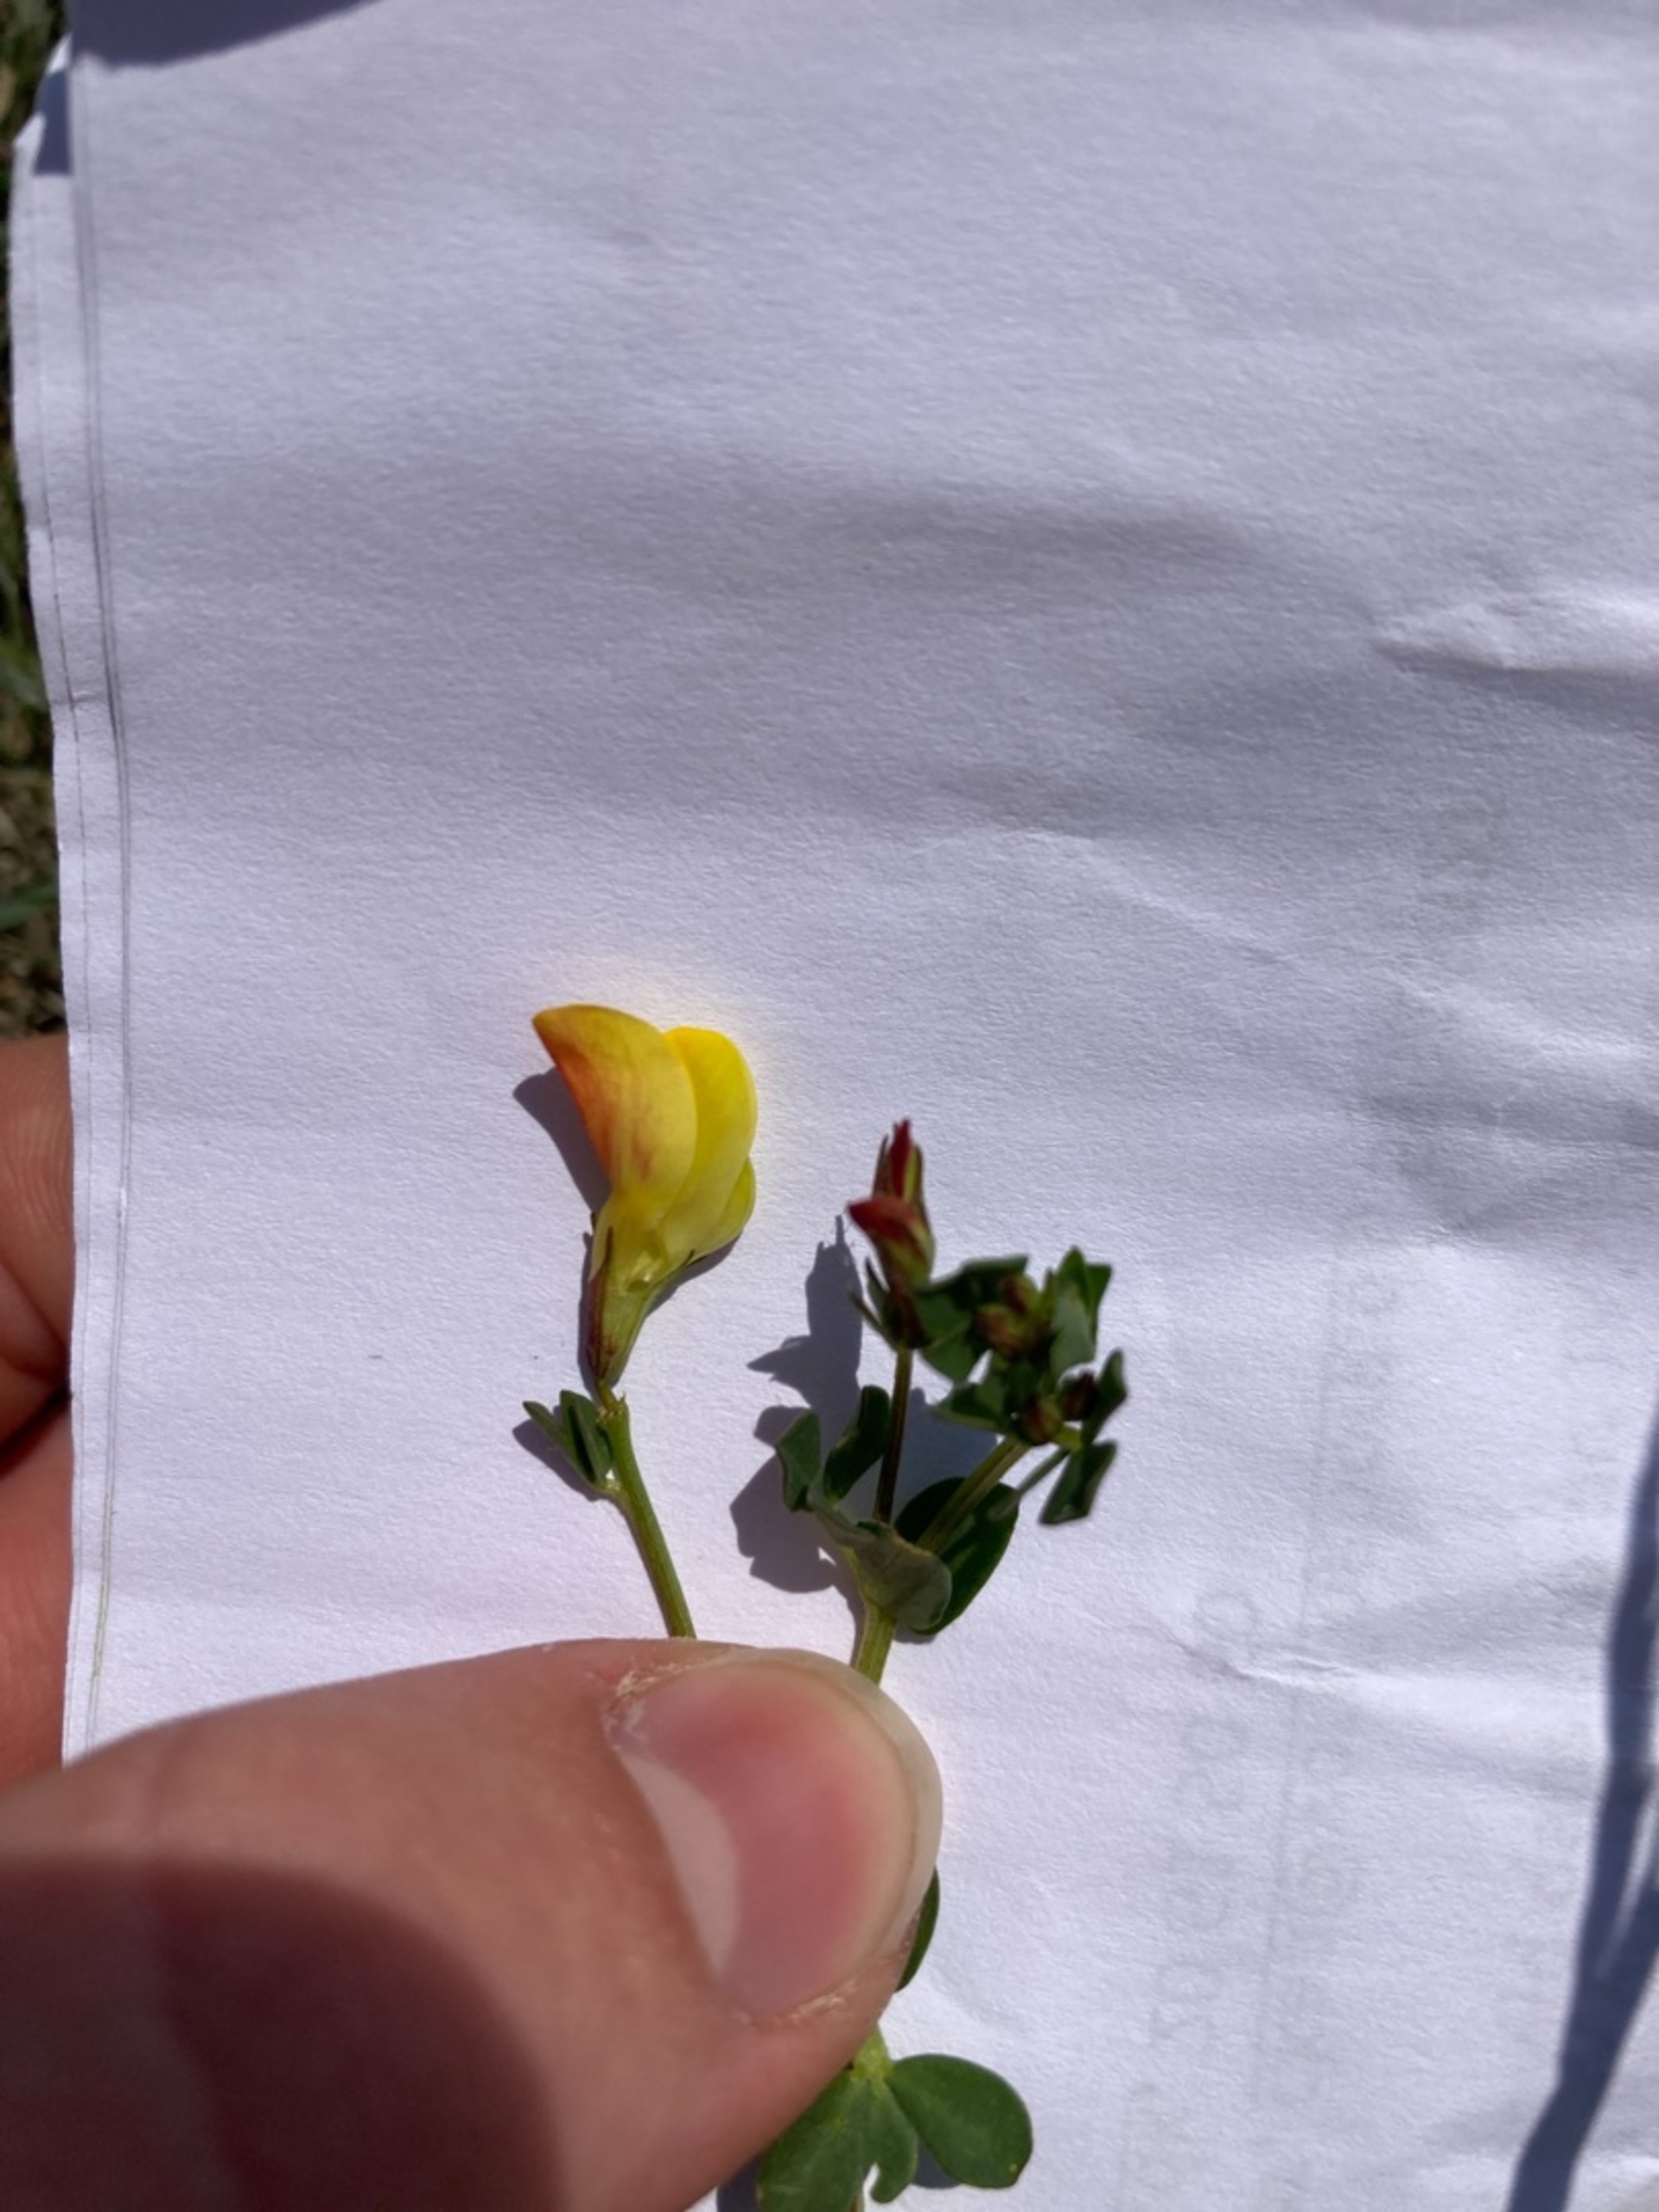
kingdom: Plantae
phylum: Tracheophyta
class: Magnoliopsida
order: Fabales
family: Fabaceae
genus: Lotus
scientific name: Lotus corniculatus
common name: Almindelig kællingetand
